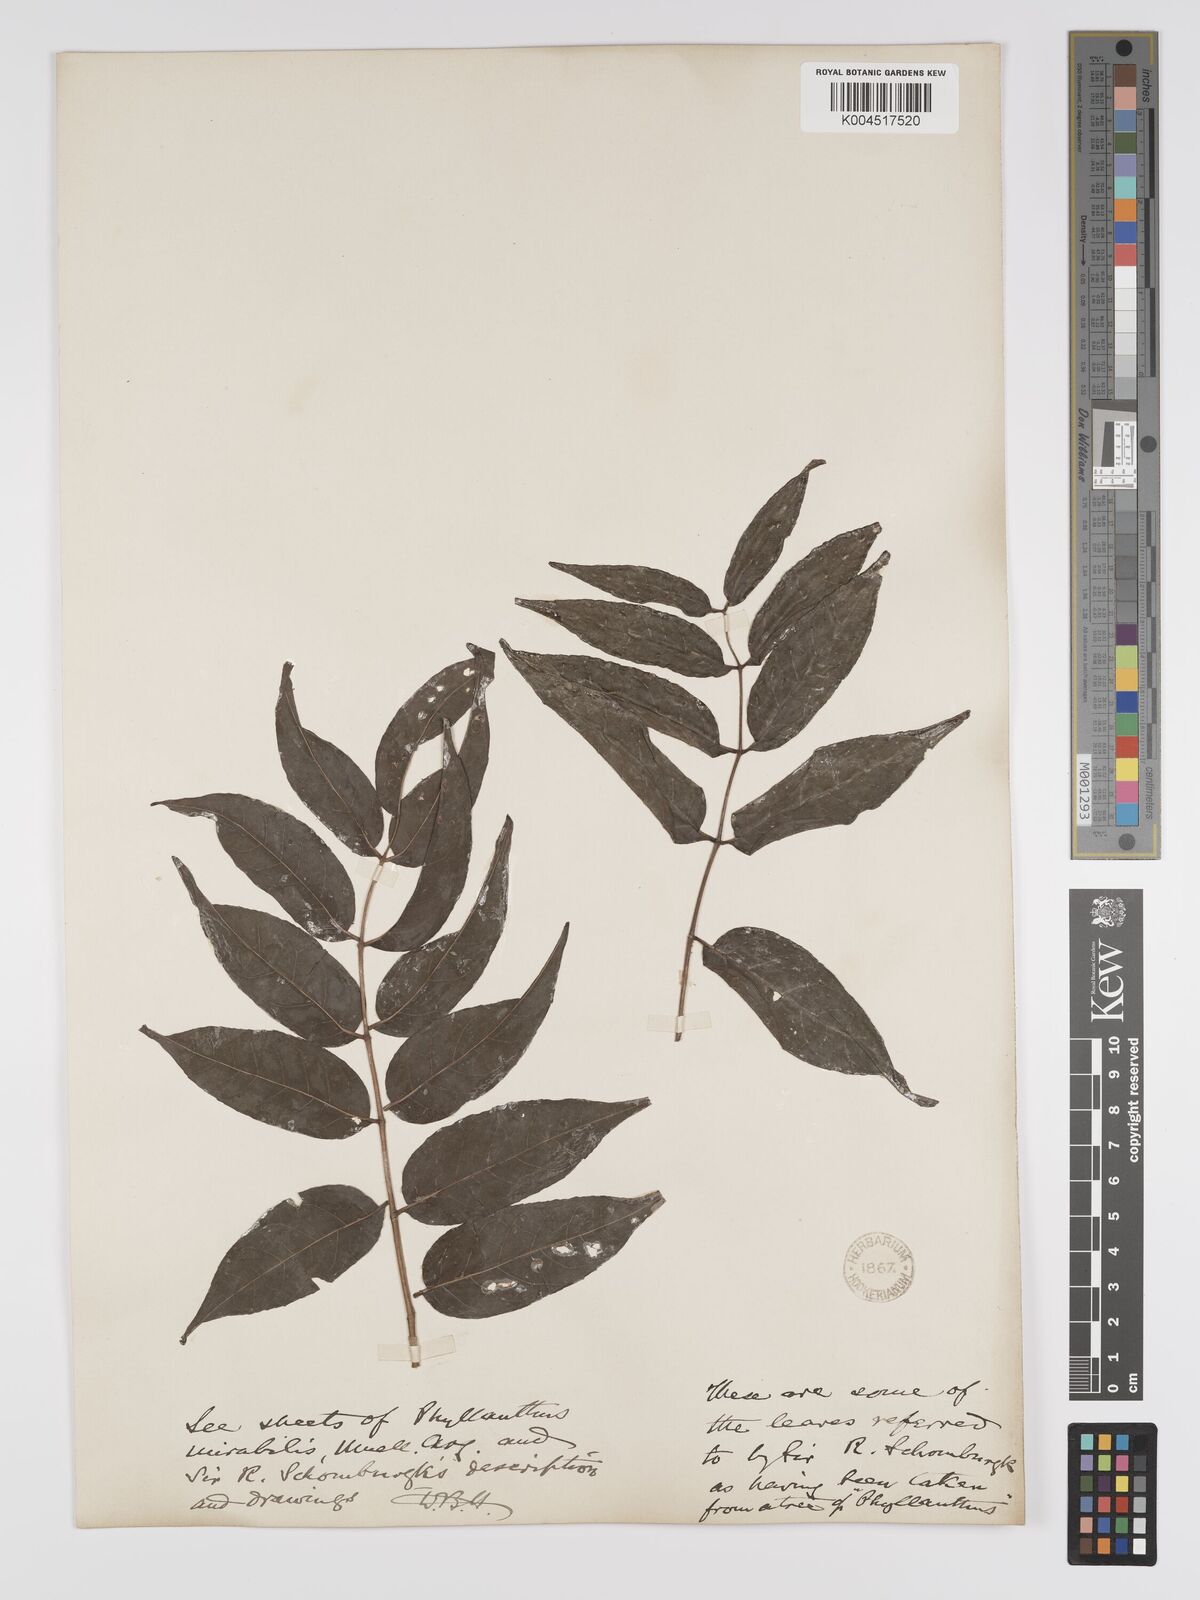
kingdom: Plantae
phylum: Tracheophyta
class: Magnoliopsida
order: Malpighiales
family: Phyllanthaceae
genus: Phyllanthus
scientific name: Phyllanthus mirabilis
